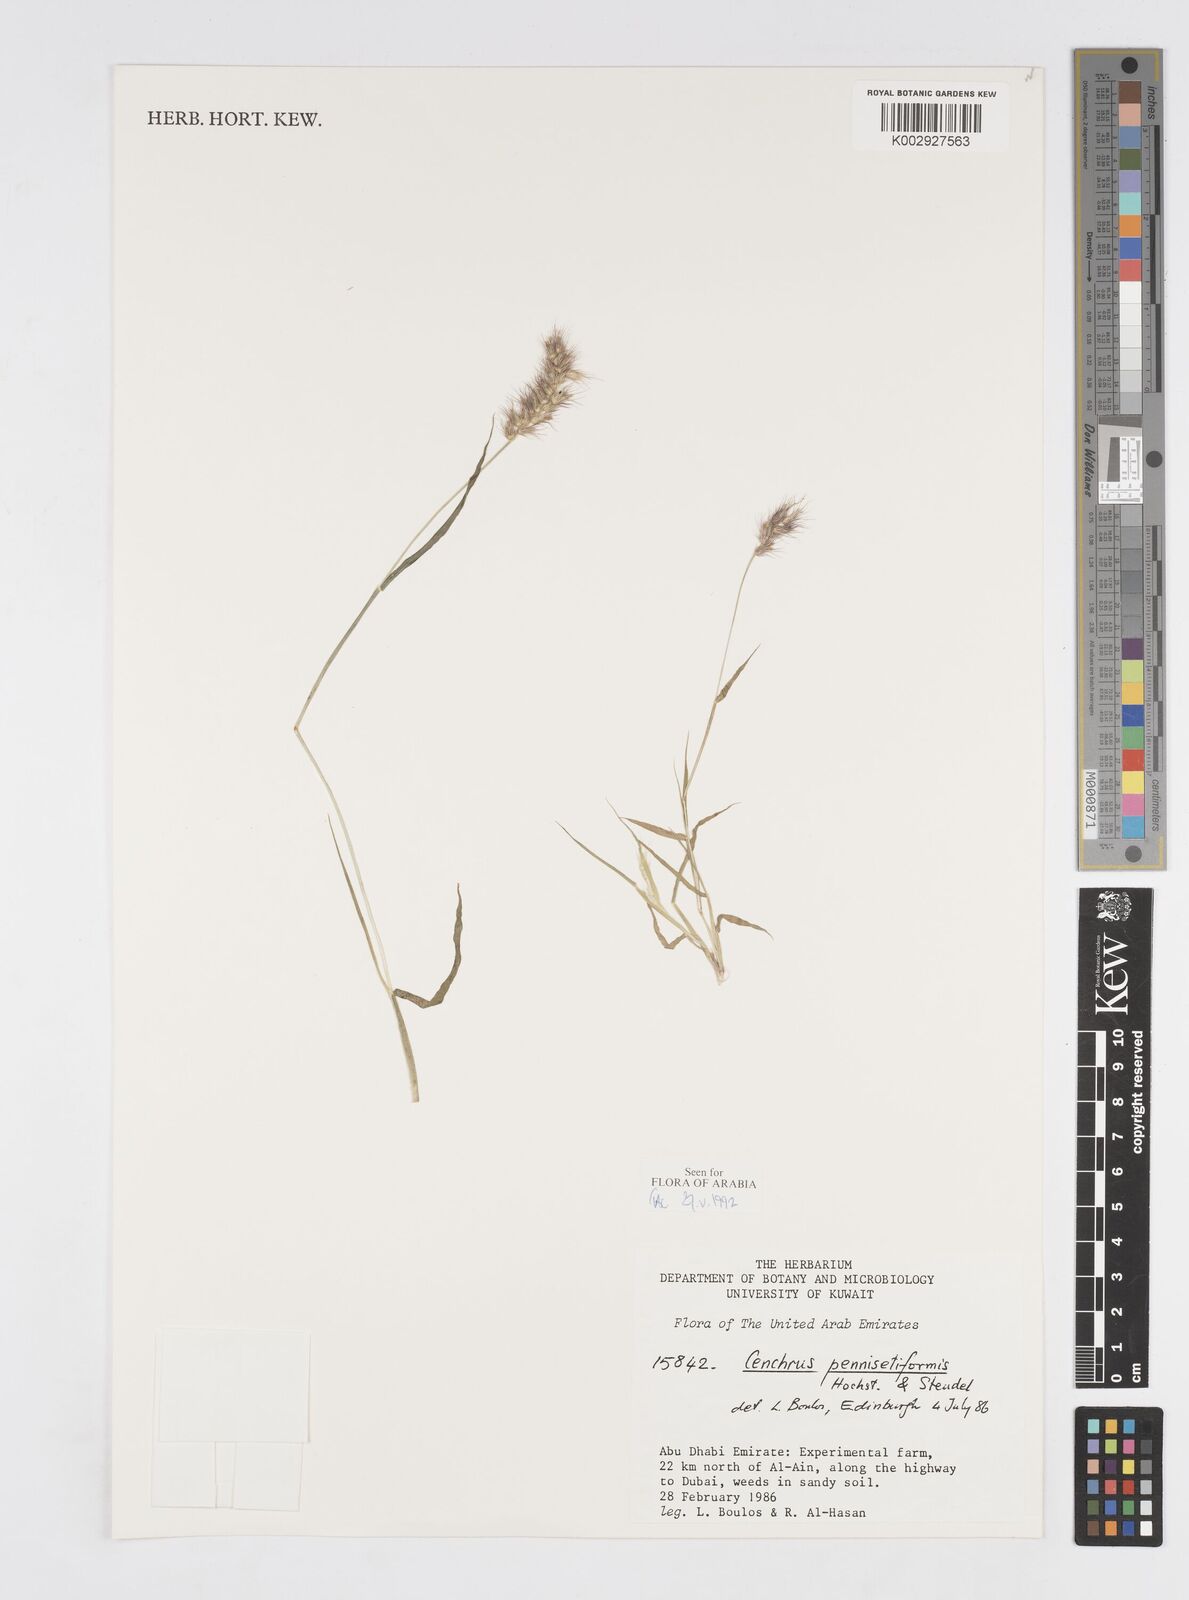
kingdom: Plantae
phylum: Tracheophyta
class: Liliopsida
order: Poales
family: Poaceae
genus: Cenchrus
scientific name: Cenchrus pennisetiformis
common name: Cloncurry
